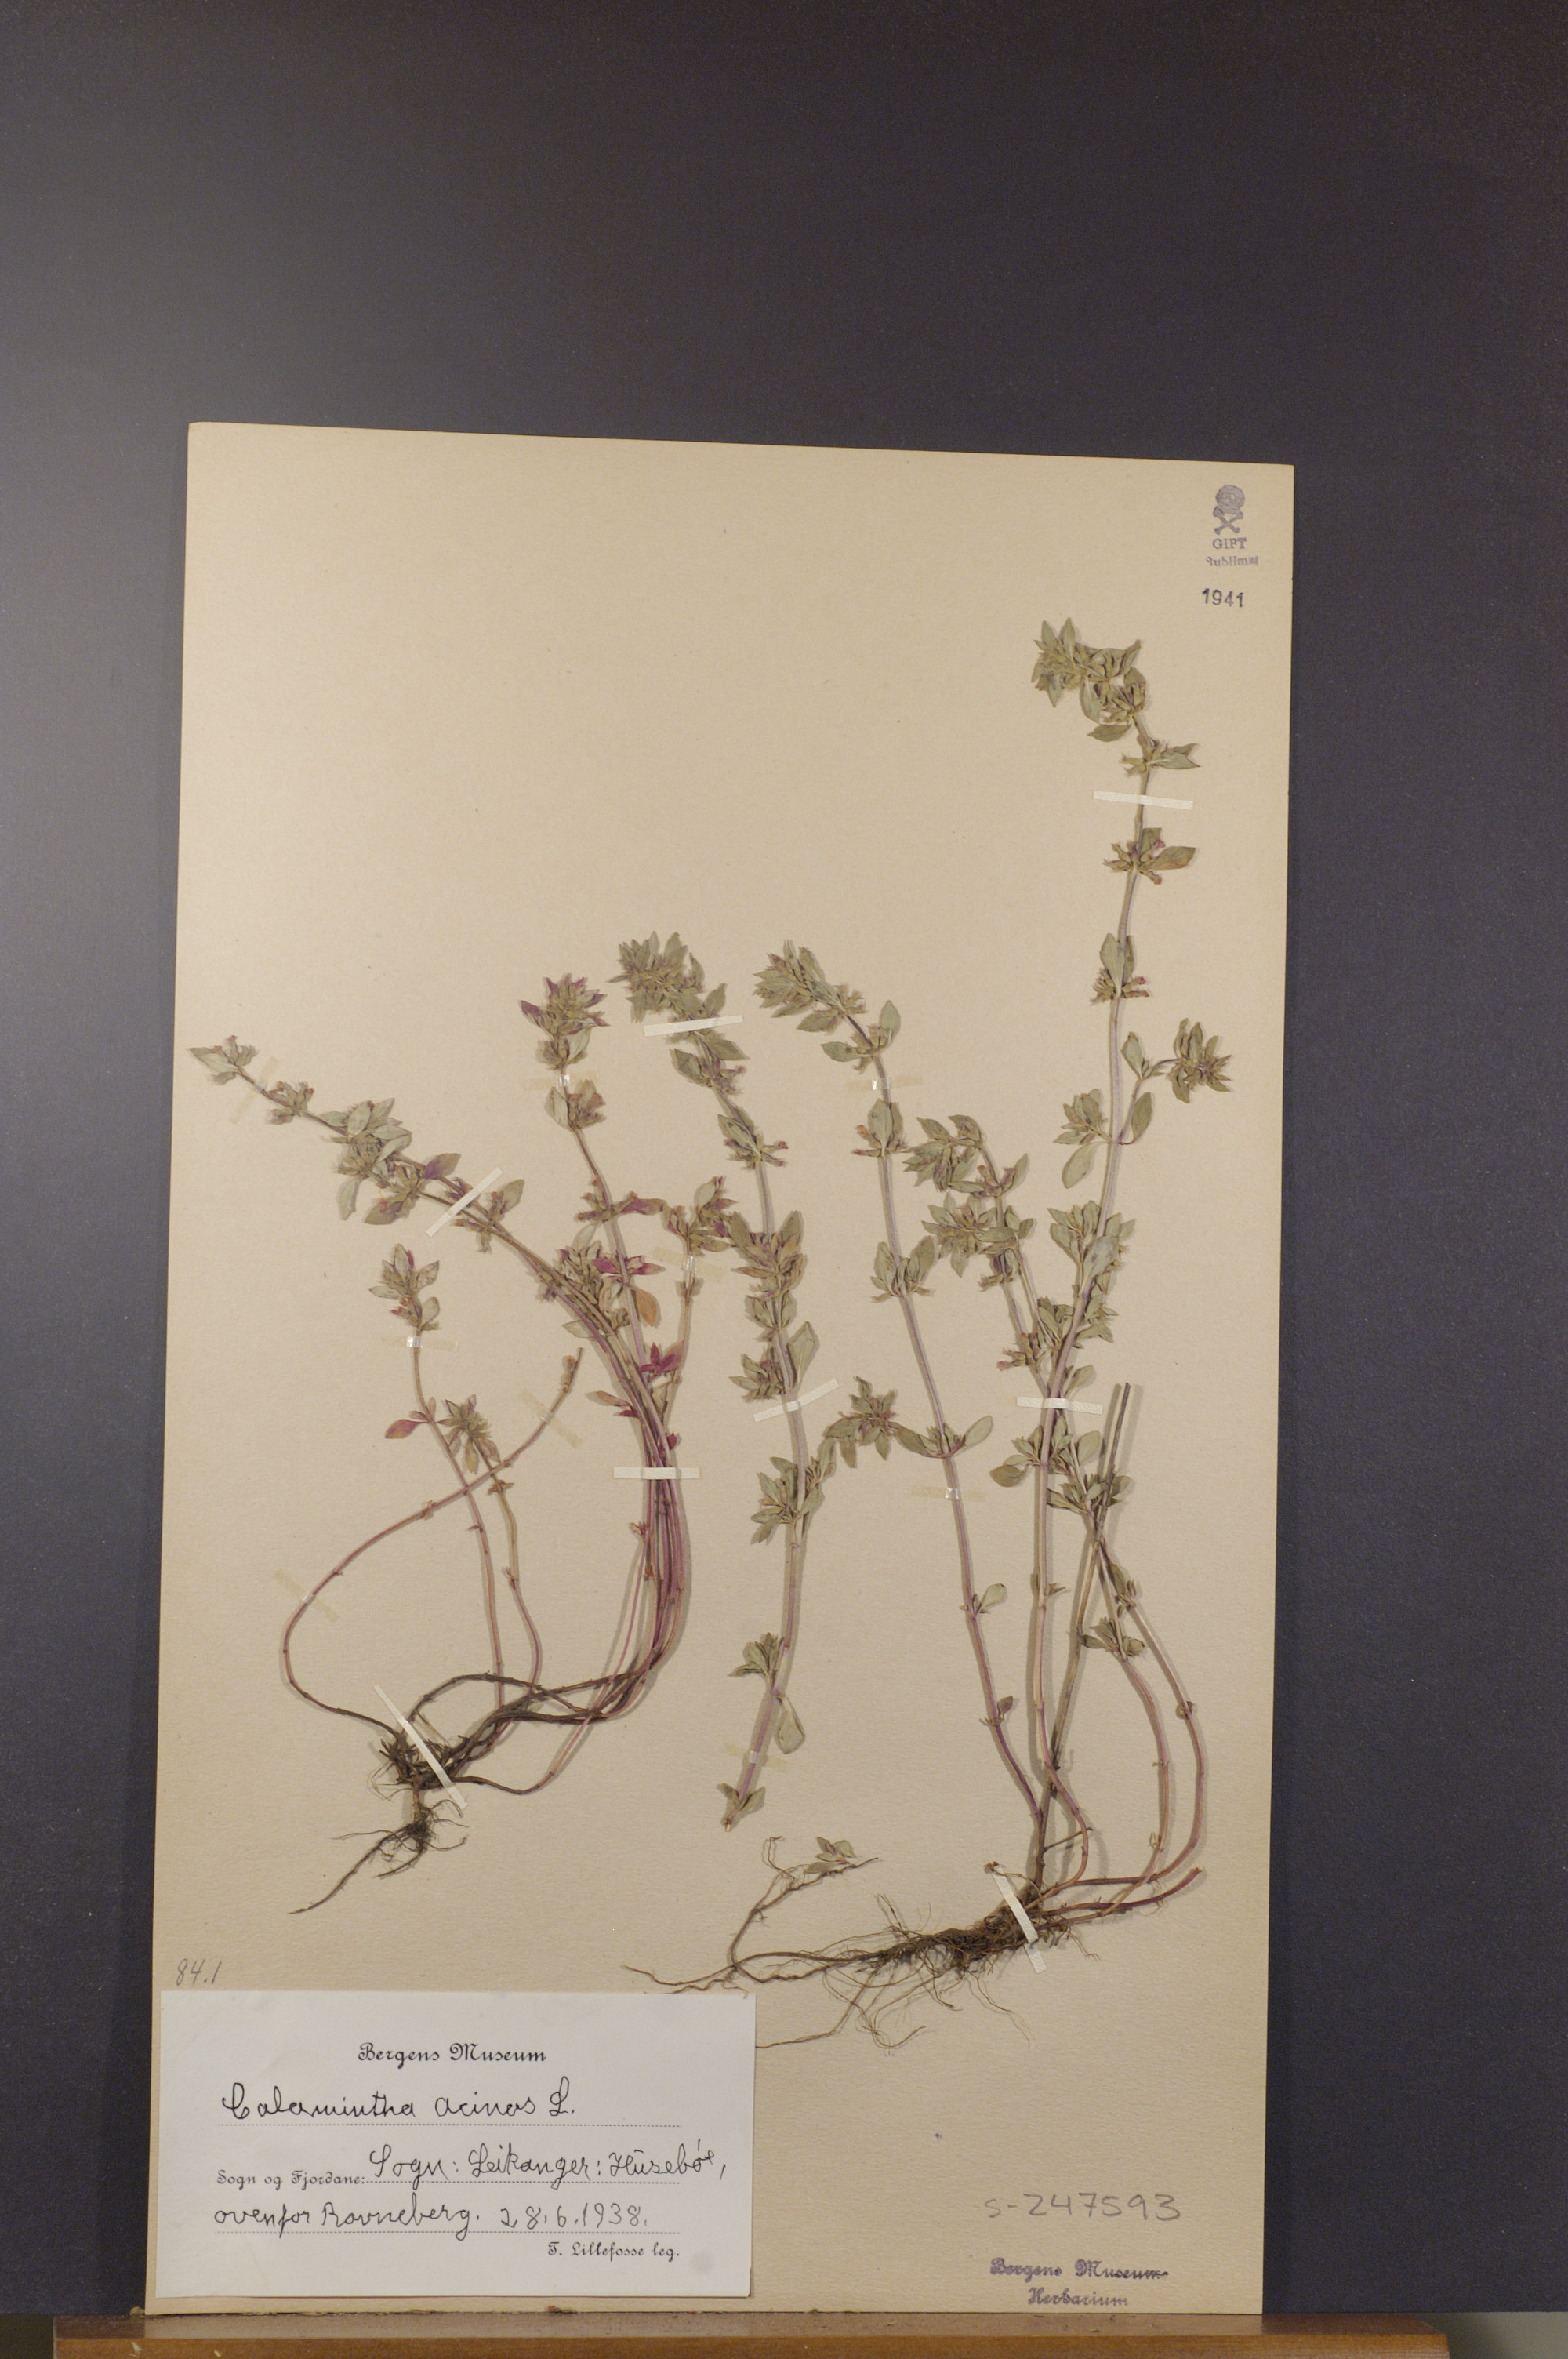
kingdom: Plantae
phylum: Tracheophyta
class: Magnoliopsida
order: Lamiales
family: Lamiaceae
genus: Clinopodium
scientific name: Clinopodium acinos
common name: Basil thyme
